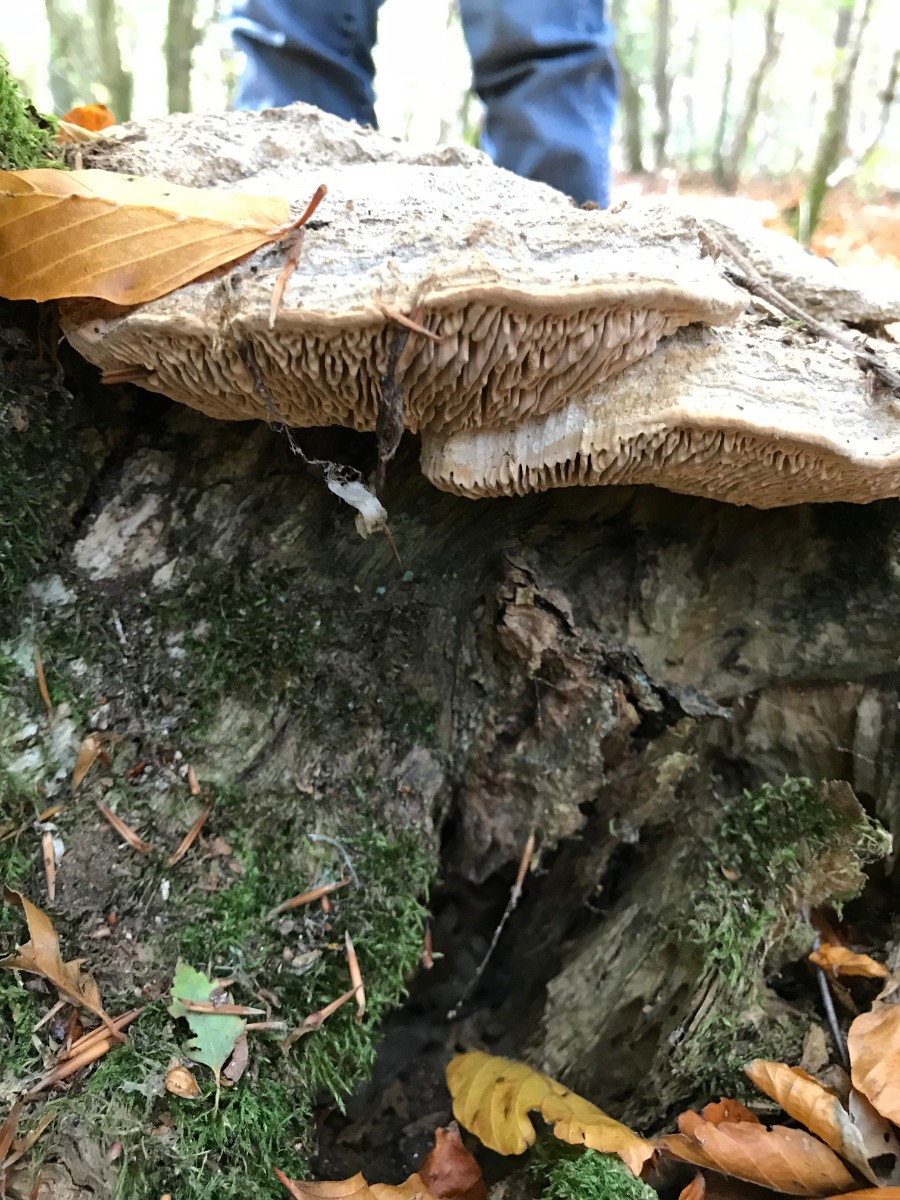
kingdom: Fungi
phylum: Basidiomycota
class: Agaricomycetes
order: Polyporales
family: Fomitopsidaceae
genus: Daedalea
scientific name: Daedalea quercina
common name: ege-labyrintsvamp
